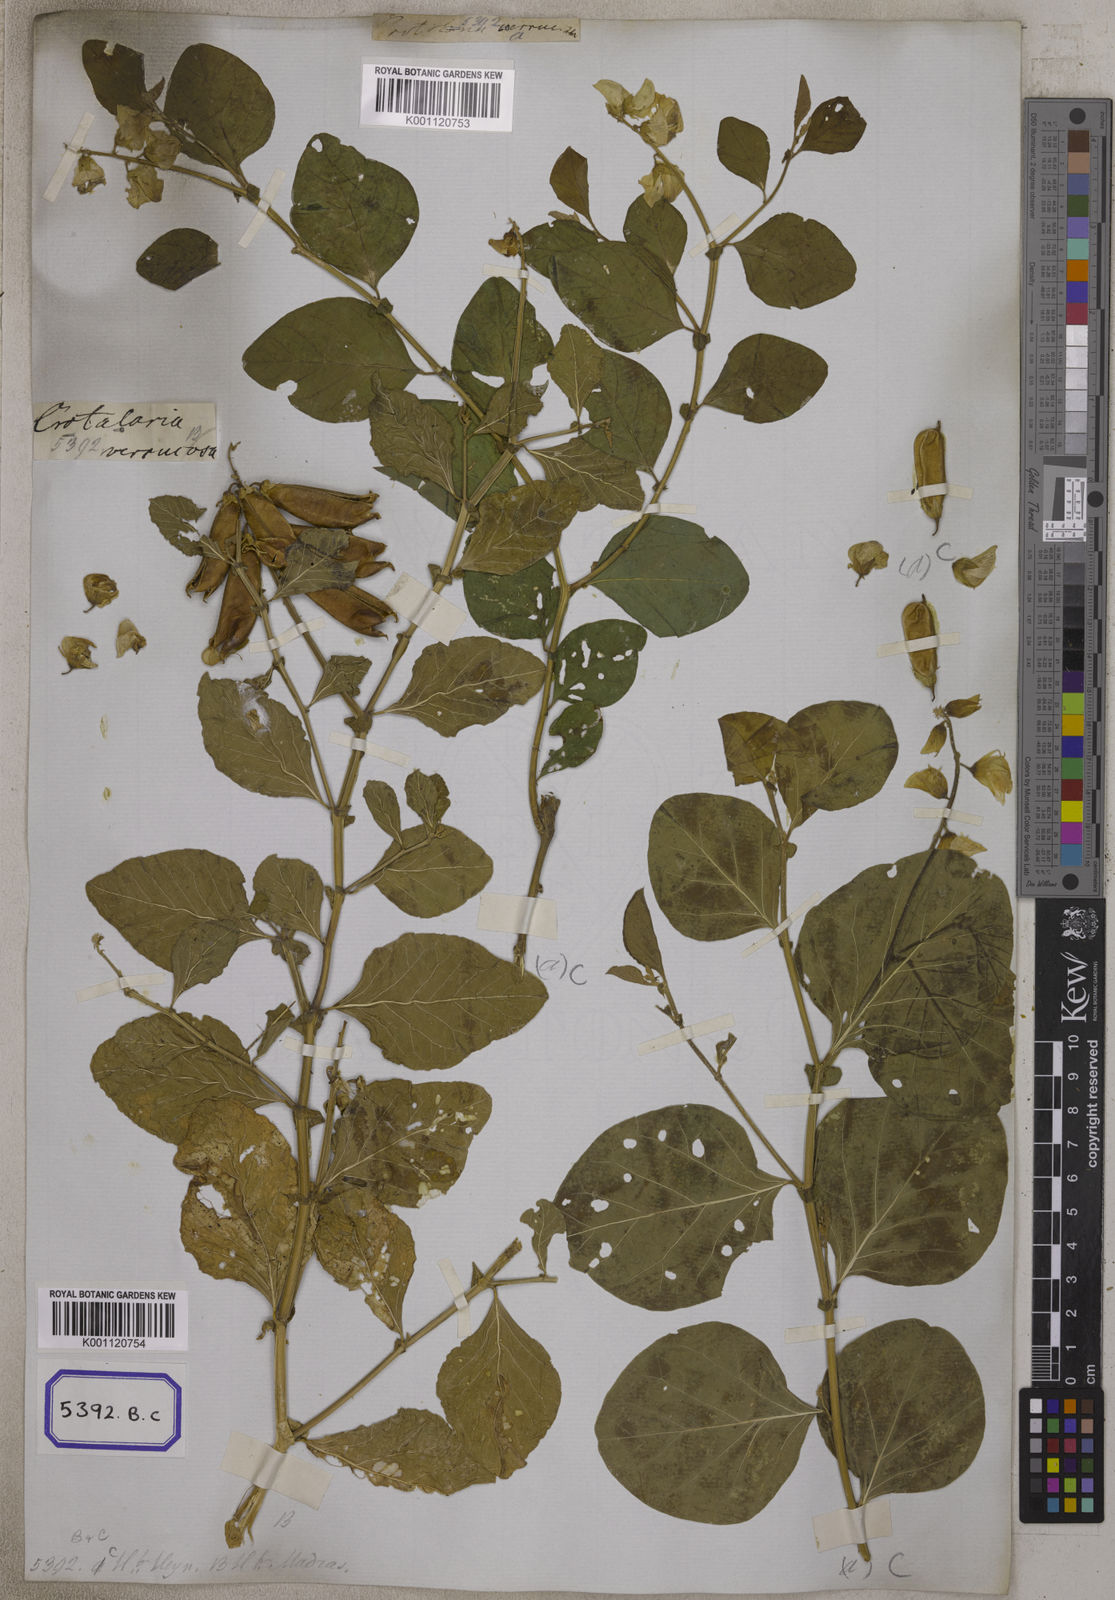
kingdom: Plantae
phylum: Tracheophyta
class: Magnoliopsida
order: Fabales
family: Fabaceae
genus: Crotalaria
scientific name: Crotalaria verrucosa
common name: Blue rattlesnake
